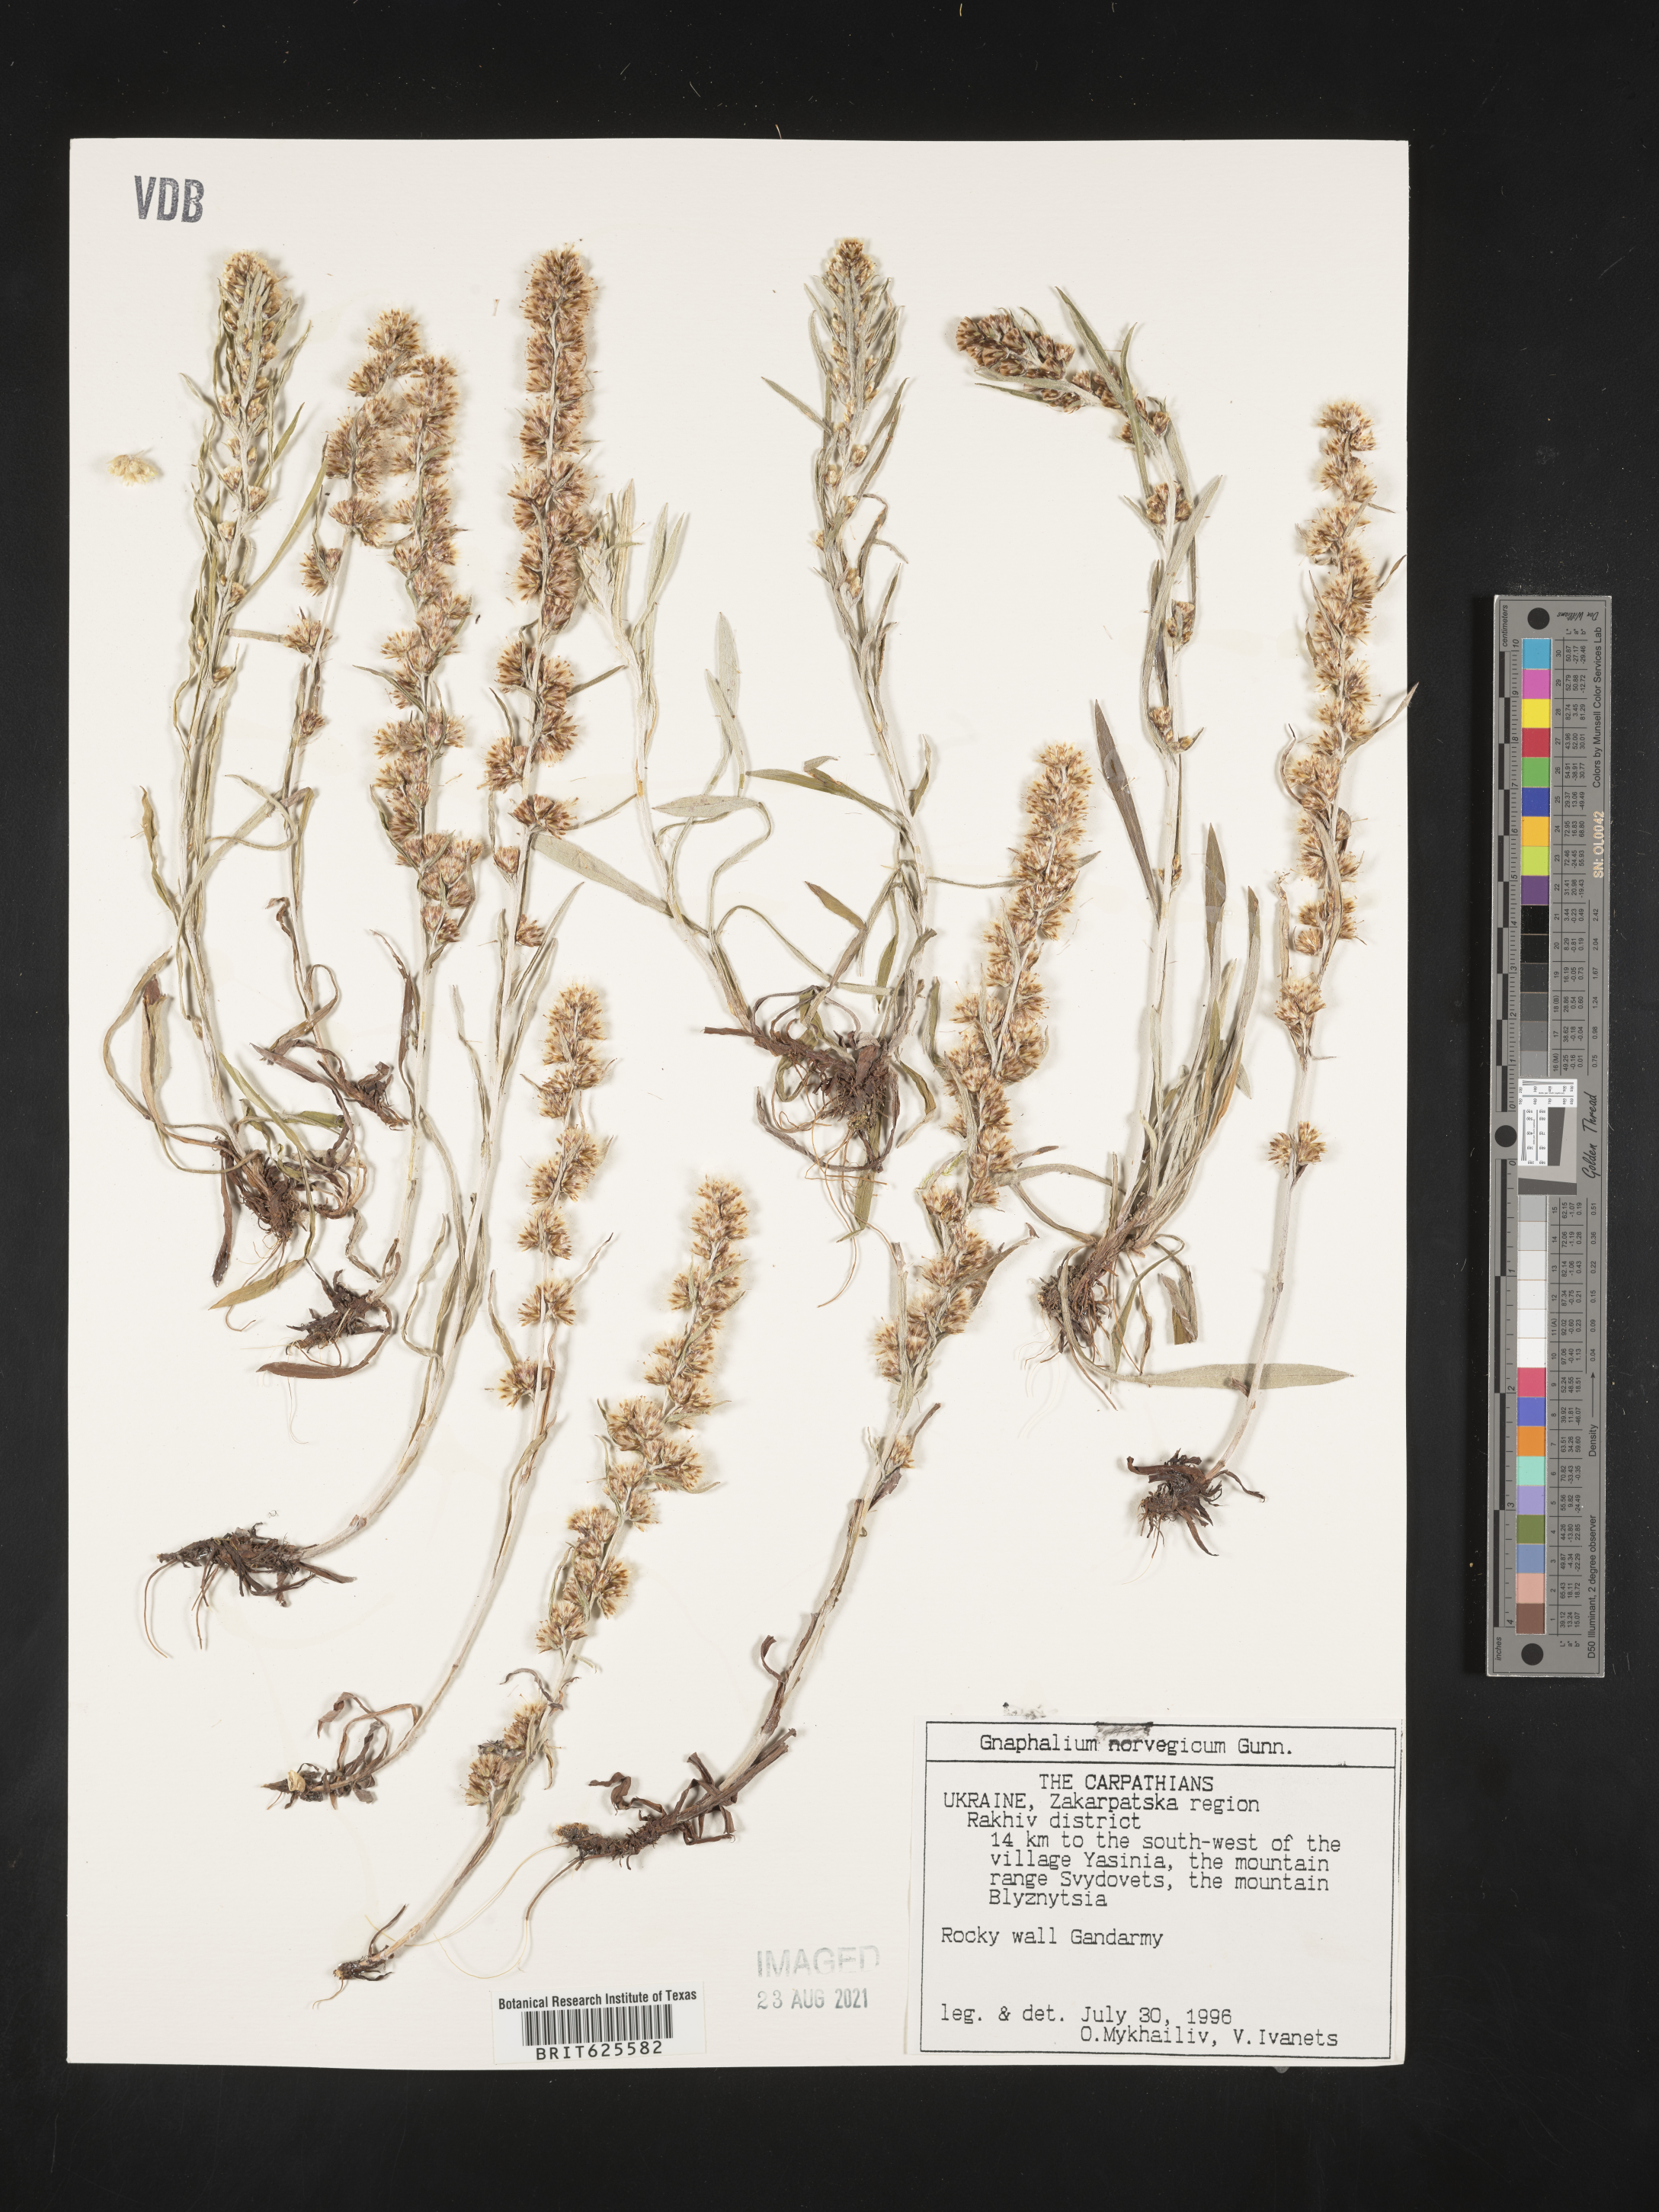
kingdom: Plantae
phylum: Tracheophyta
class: Magnoliopsida
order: Asterales
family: Asteraceae
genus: Omalotheca
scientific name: Omalotheca norvegica
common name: Norwegian arctic-cudweed
